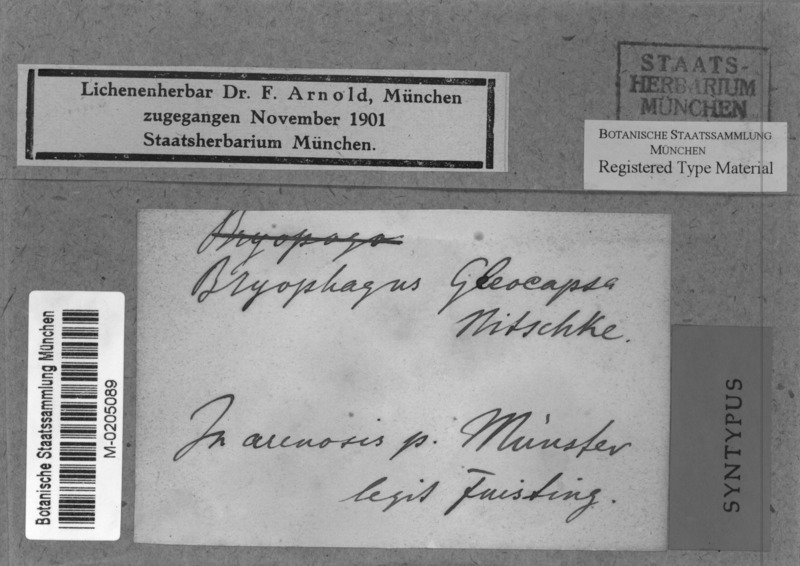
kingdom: Fungi
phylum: Ascomycota
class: Lecanoromycetes
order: Ostropales
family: Stictidaceae
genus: Cryptodiscus
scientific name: Cryptodiscus gloeocapsa
